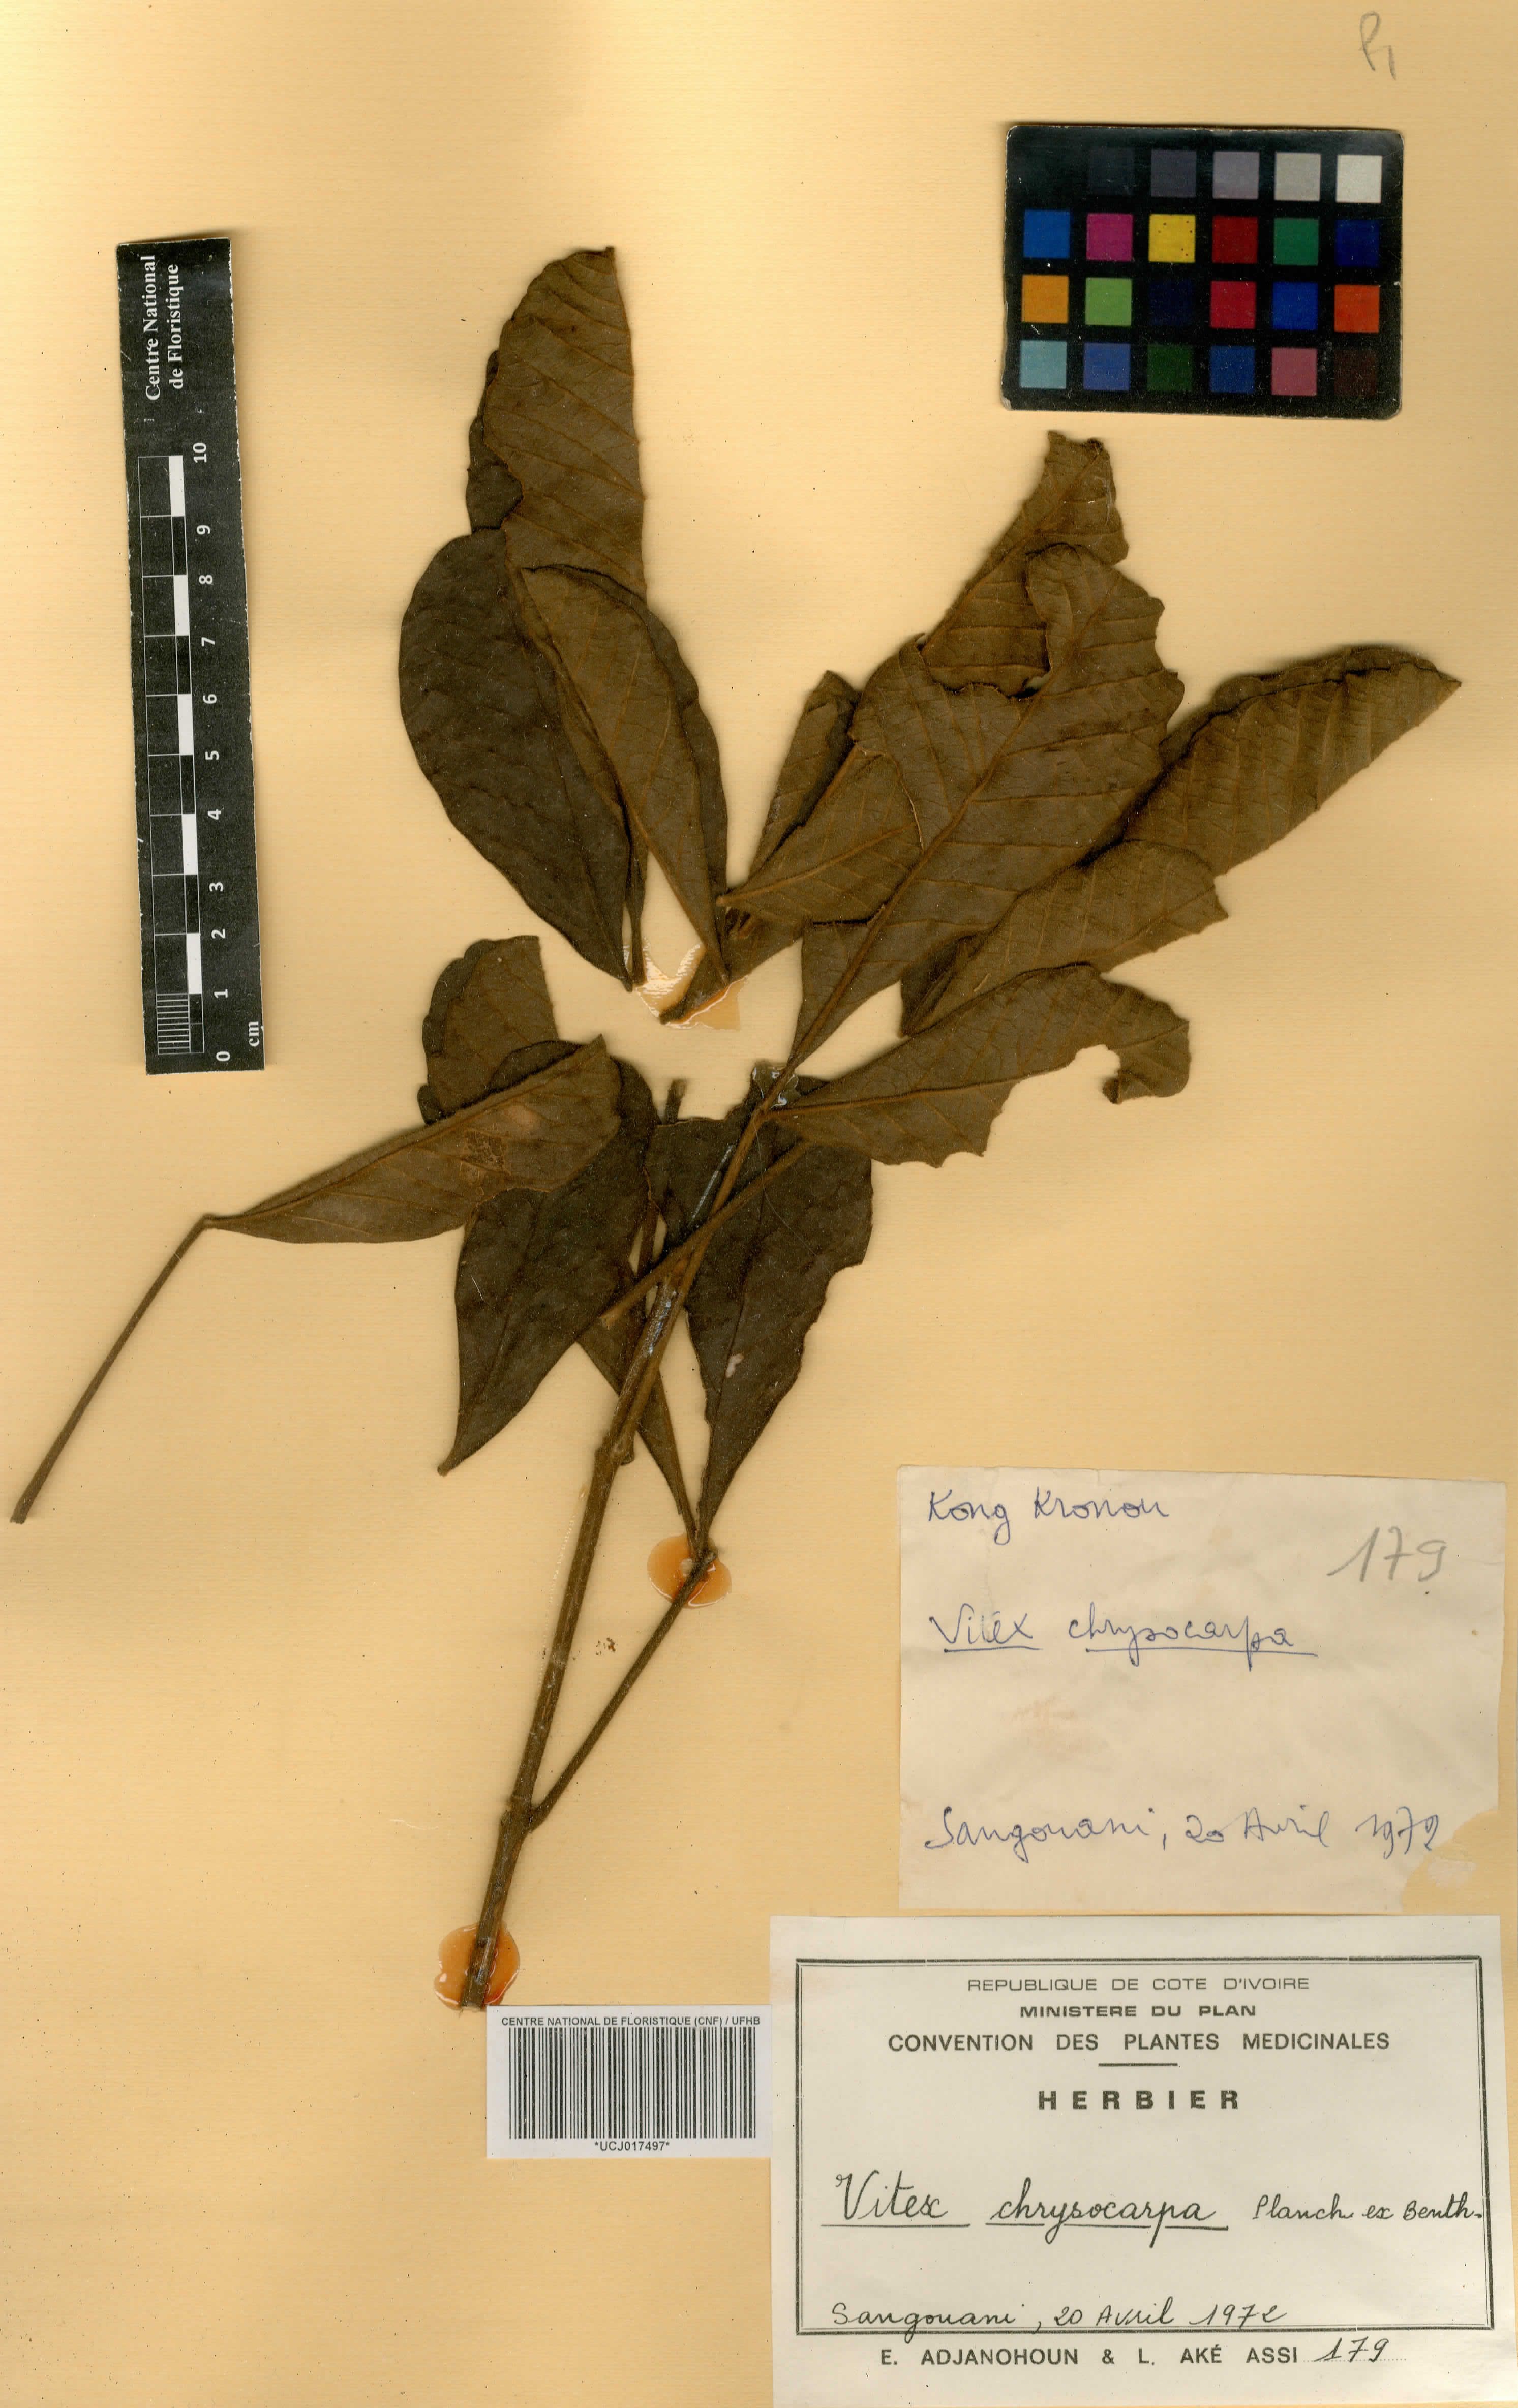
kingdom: Plantae
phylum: Tracheophyta
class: Magnoliopsida
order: Lamiales
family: Verbenaceae
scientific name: Verbenaceae
